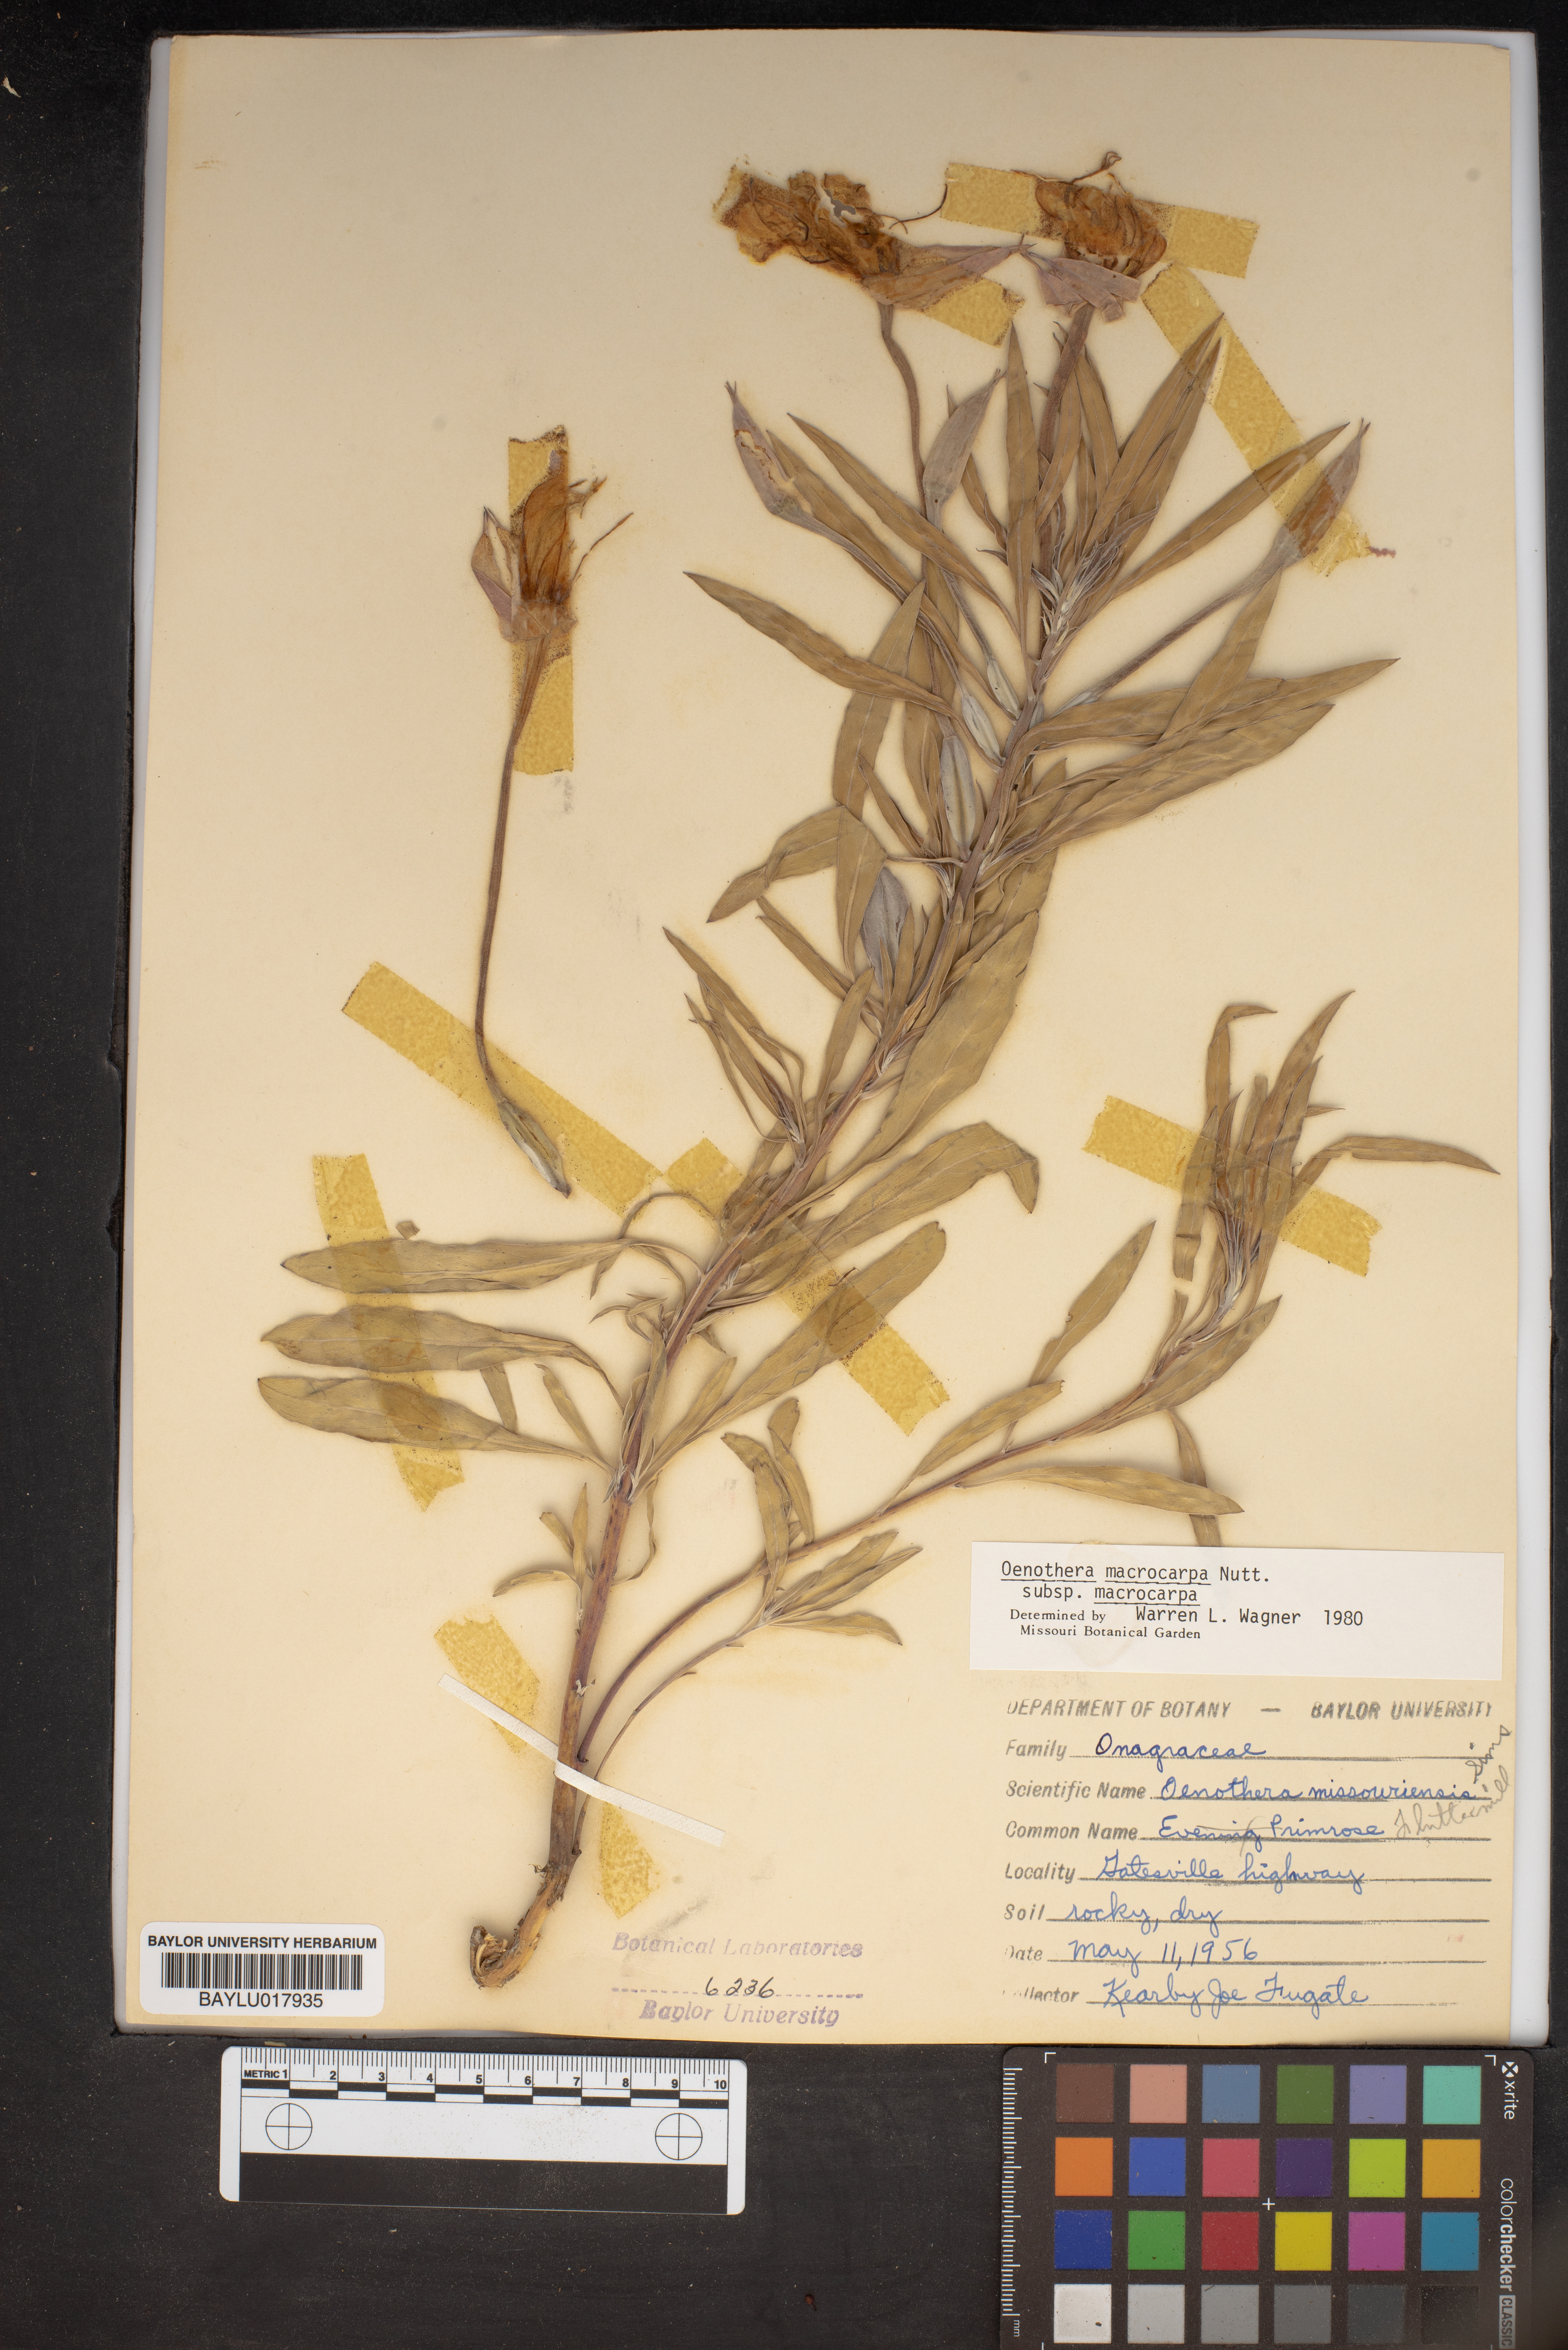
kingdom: Plantae
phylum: Tracheophyta
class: Magnoliopsida
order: Myrtales
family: Onagraceae
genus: Oenothera
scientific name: Oenothera macrocarpa
